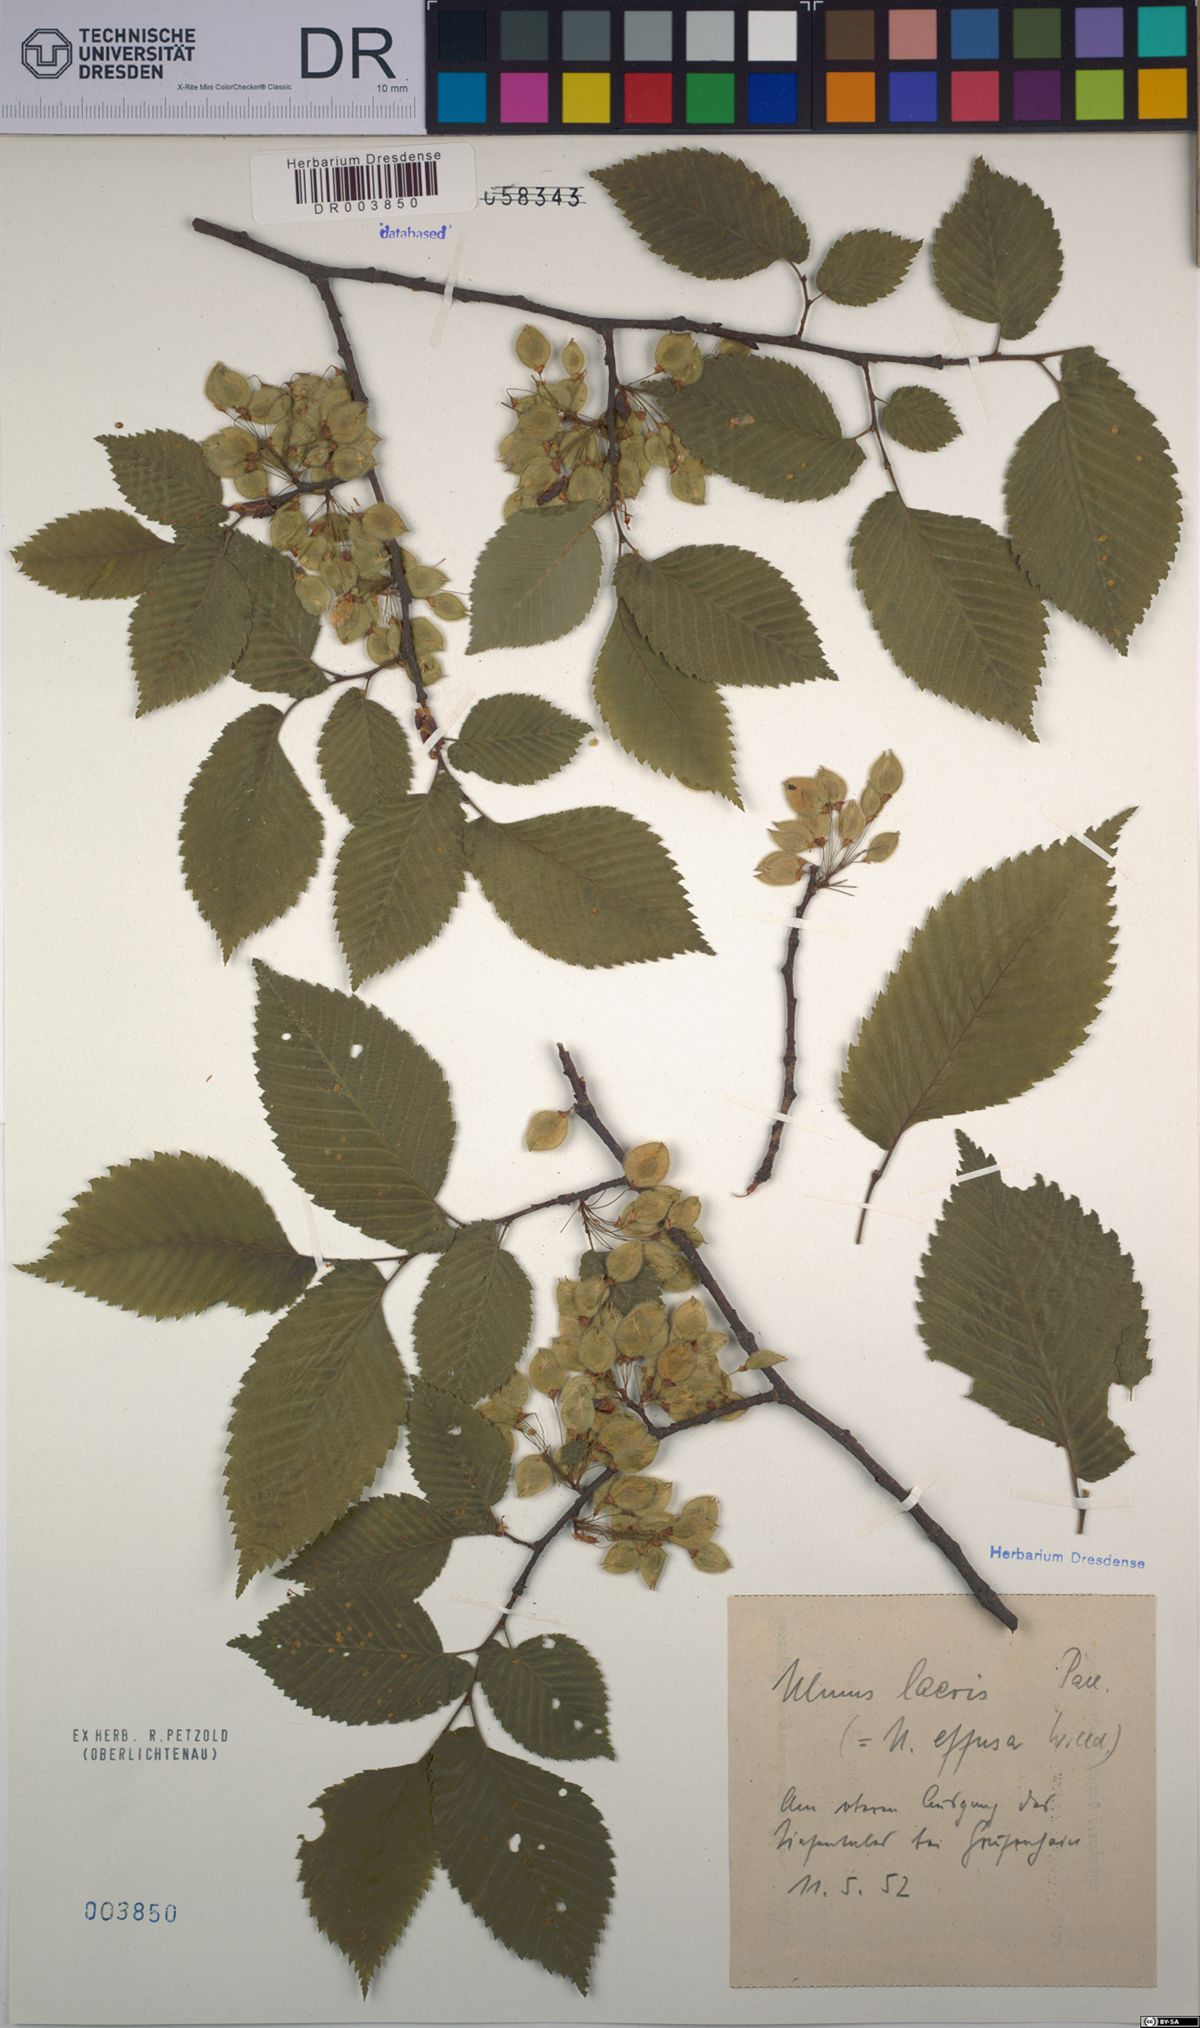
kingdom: Plantae
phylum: Tracheophyta
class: Magnoliopsida
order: Rosales
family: Ulmaceae
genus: Ulmus
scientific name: Ulmus laevis
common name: European white-elm
